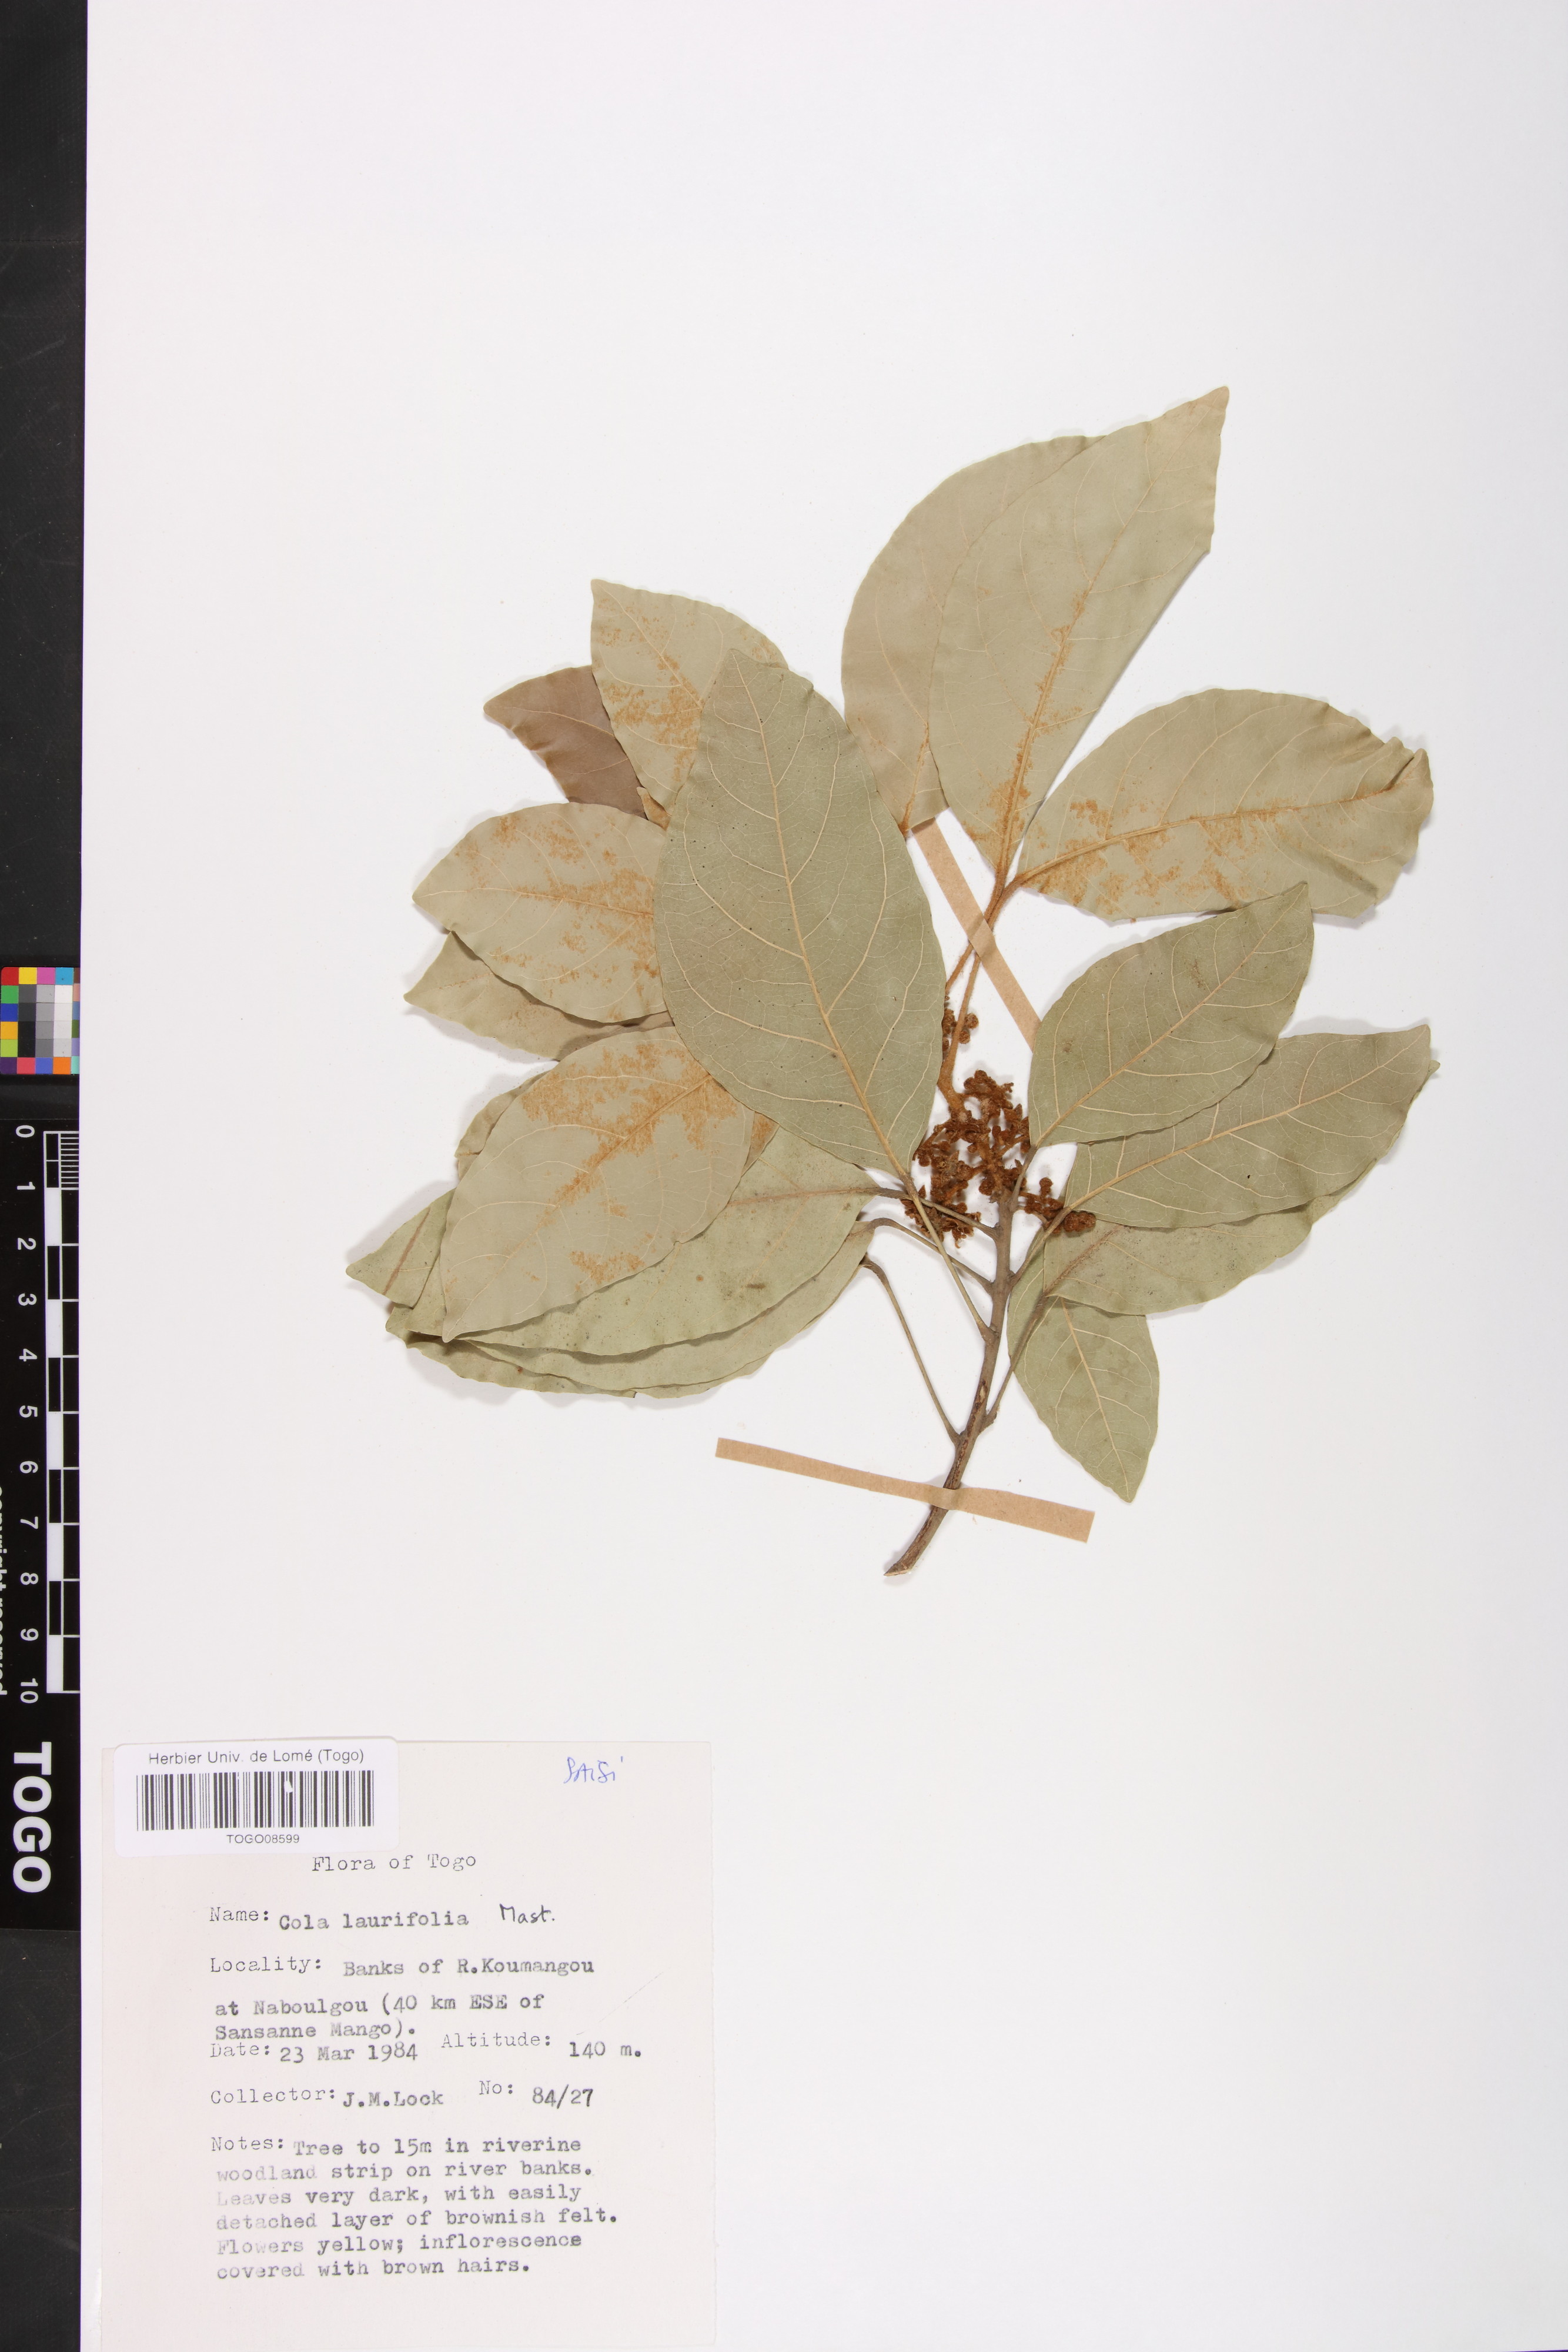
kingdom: Plantae
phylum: Tracheophyta
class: Magnoliopsida
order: Malvales
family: Malvaceae
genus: Cola
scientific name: Cola laurifolia
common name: Laurel-leaved kola
